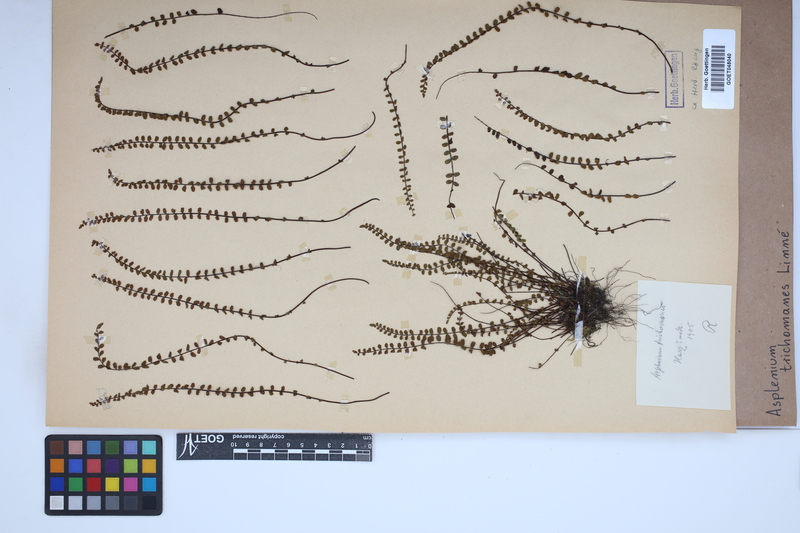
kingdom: Plantae
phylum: Tracheophyta
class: Polypodiopsida
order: Polypodiales
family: Aspleniaceae
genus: Asplenium
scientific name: Asplenium trichomanes
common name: Maidenhair spleenwort
